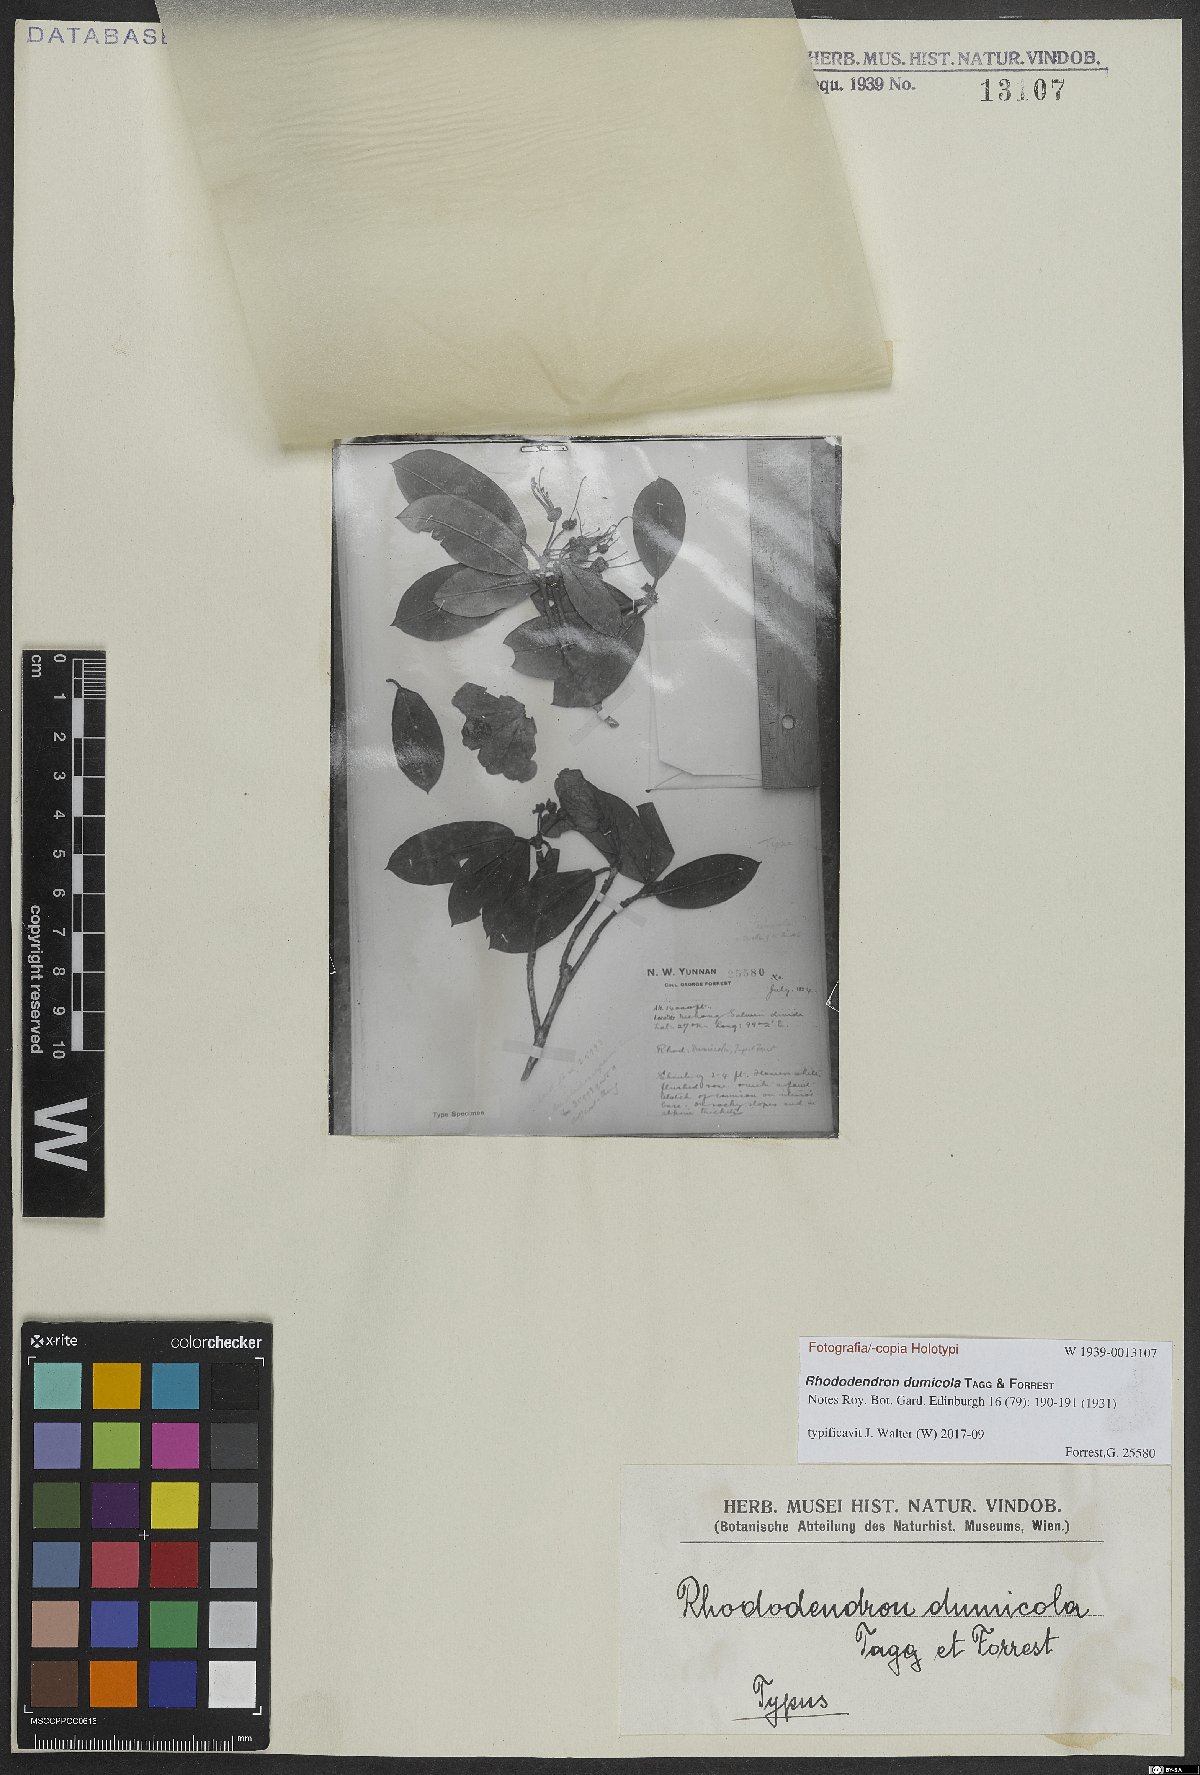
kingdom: Plantae
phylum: Tracheophyta
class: Magnoliopsida
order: Ericales
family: Ericaceae
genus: Rhododendron
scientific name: Rhododendron dumicola
